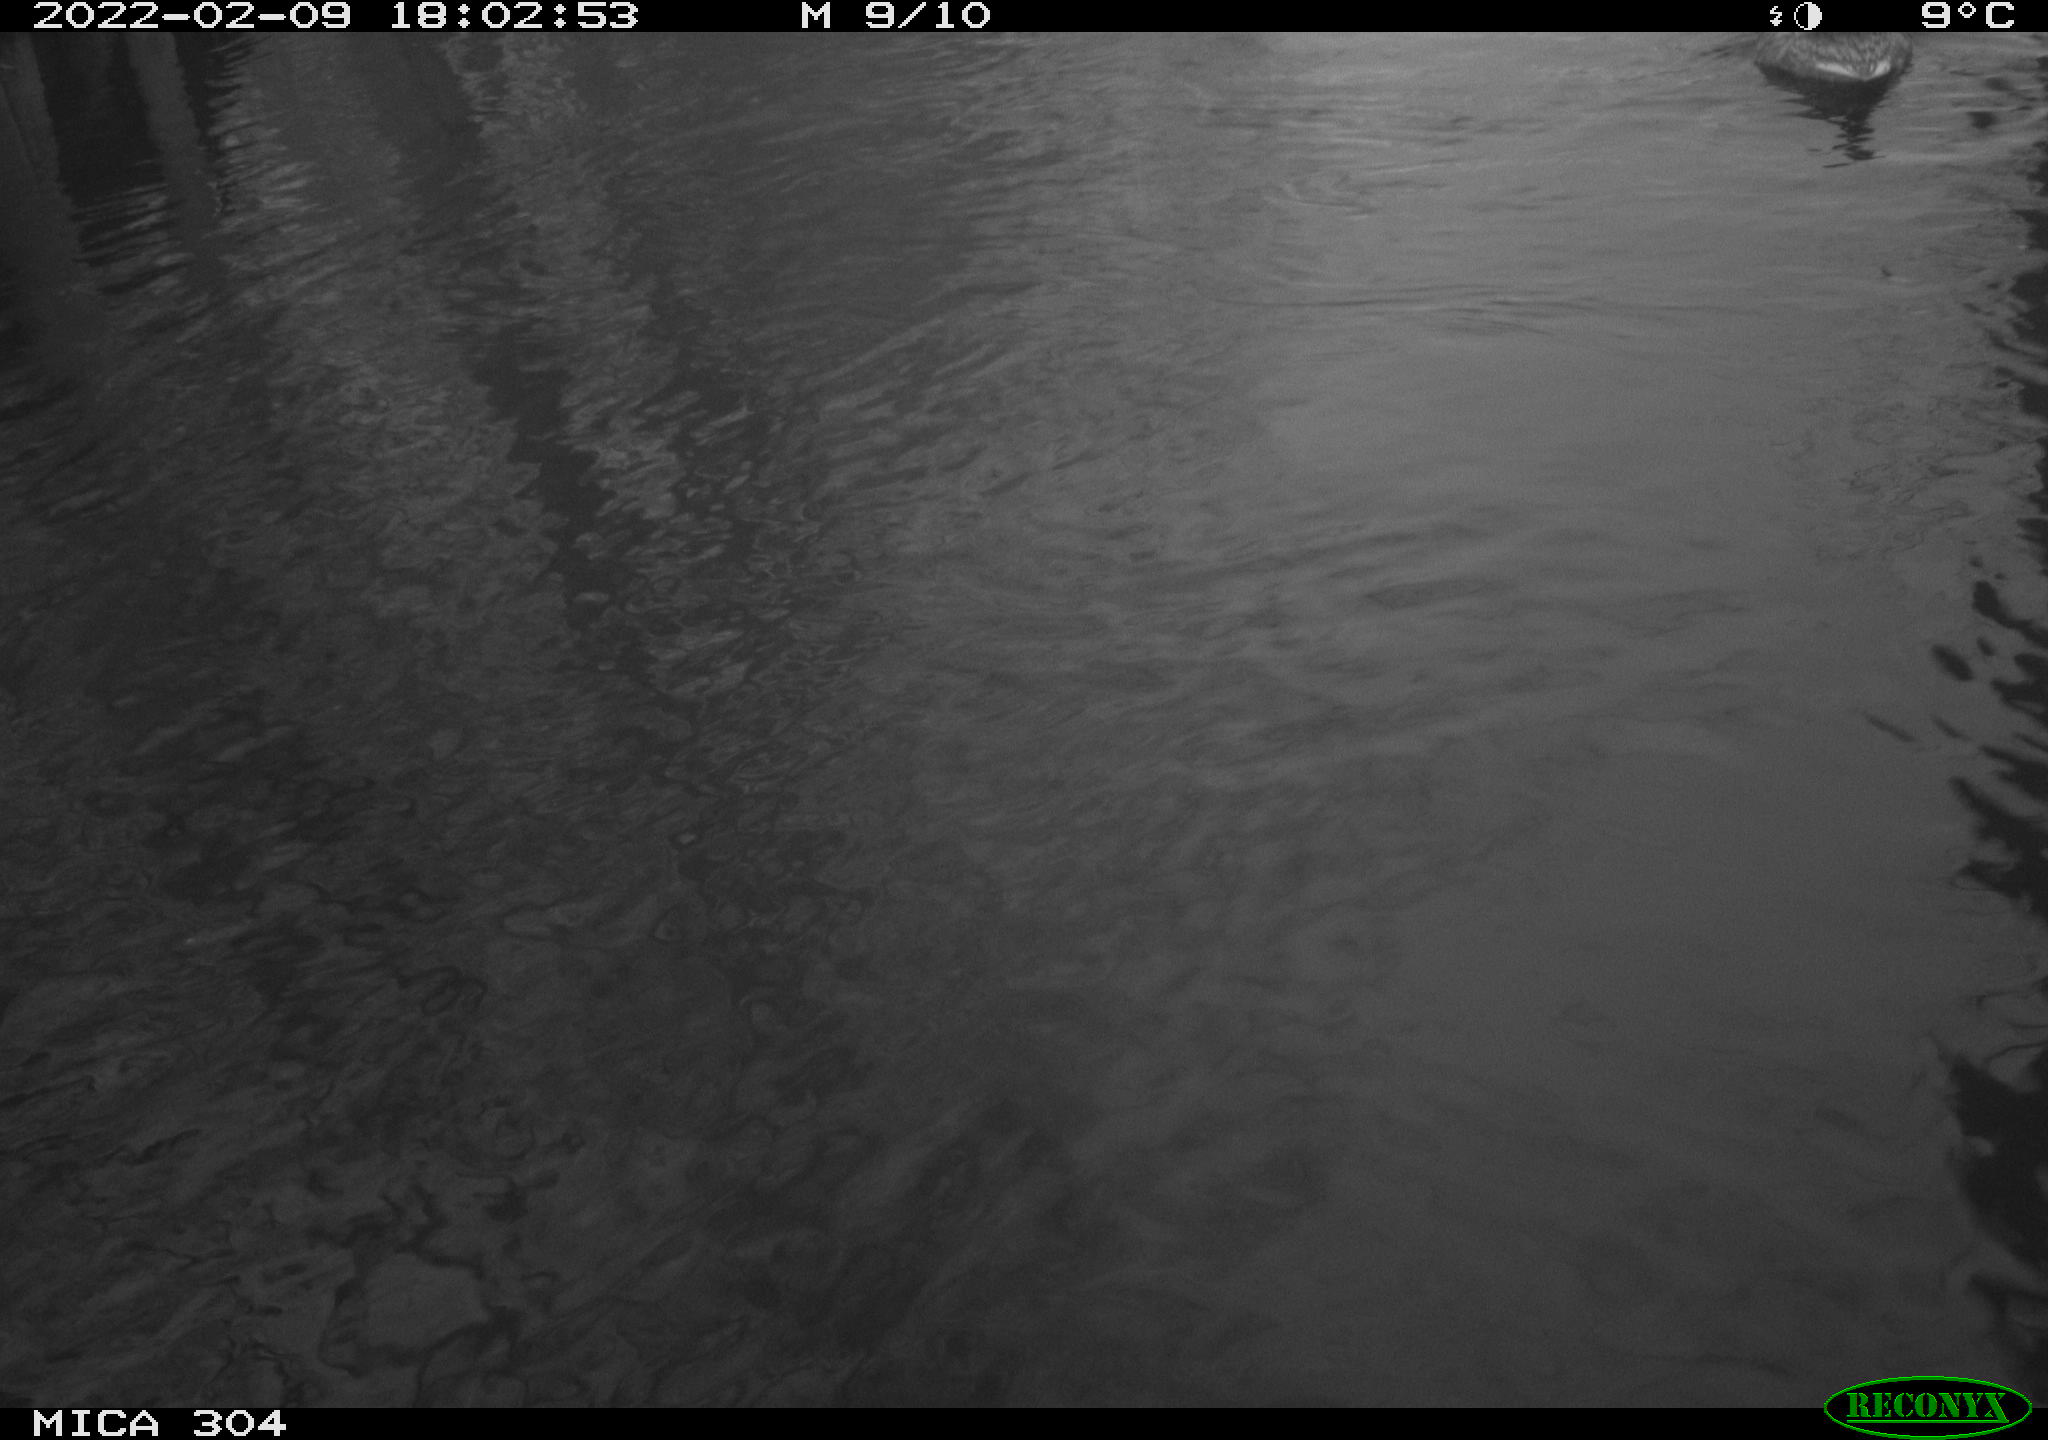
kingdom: Animalia
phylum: Chordata
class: Aves
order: Anseriformes
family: Anatidae
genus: Anas
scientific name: Anas platyrhynchos
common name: Mallard
